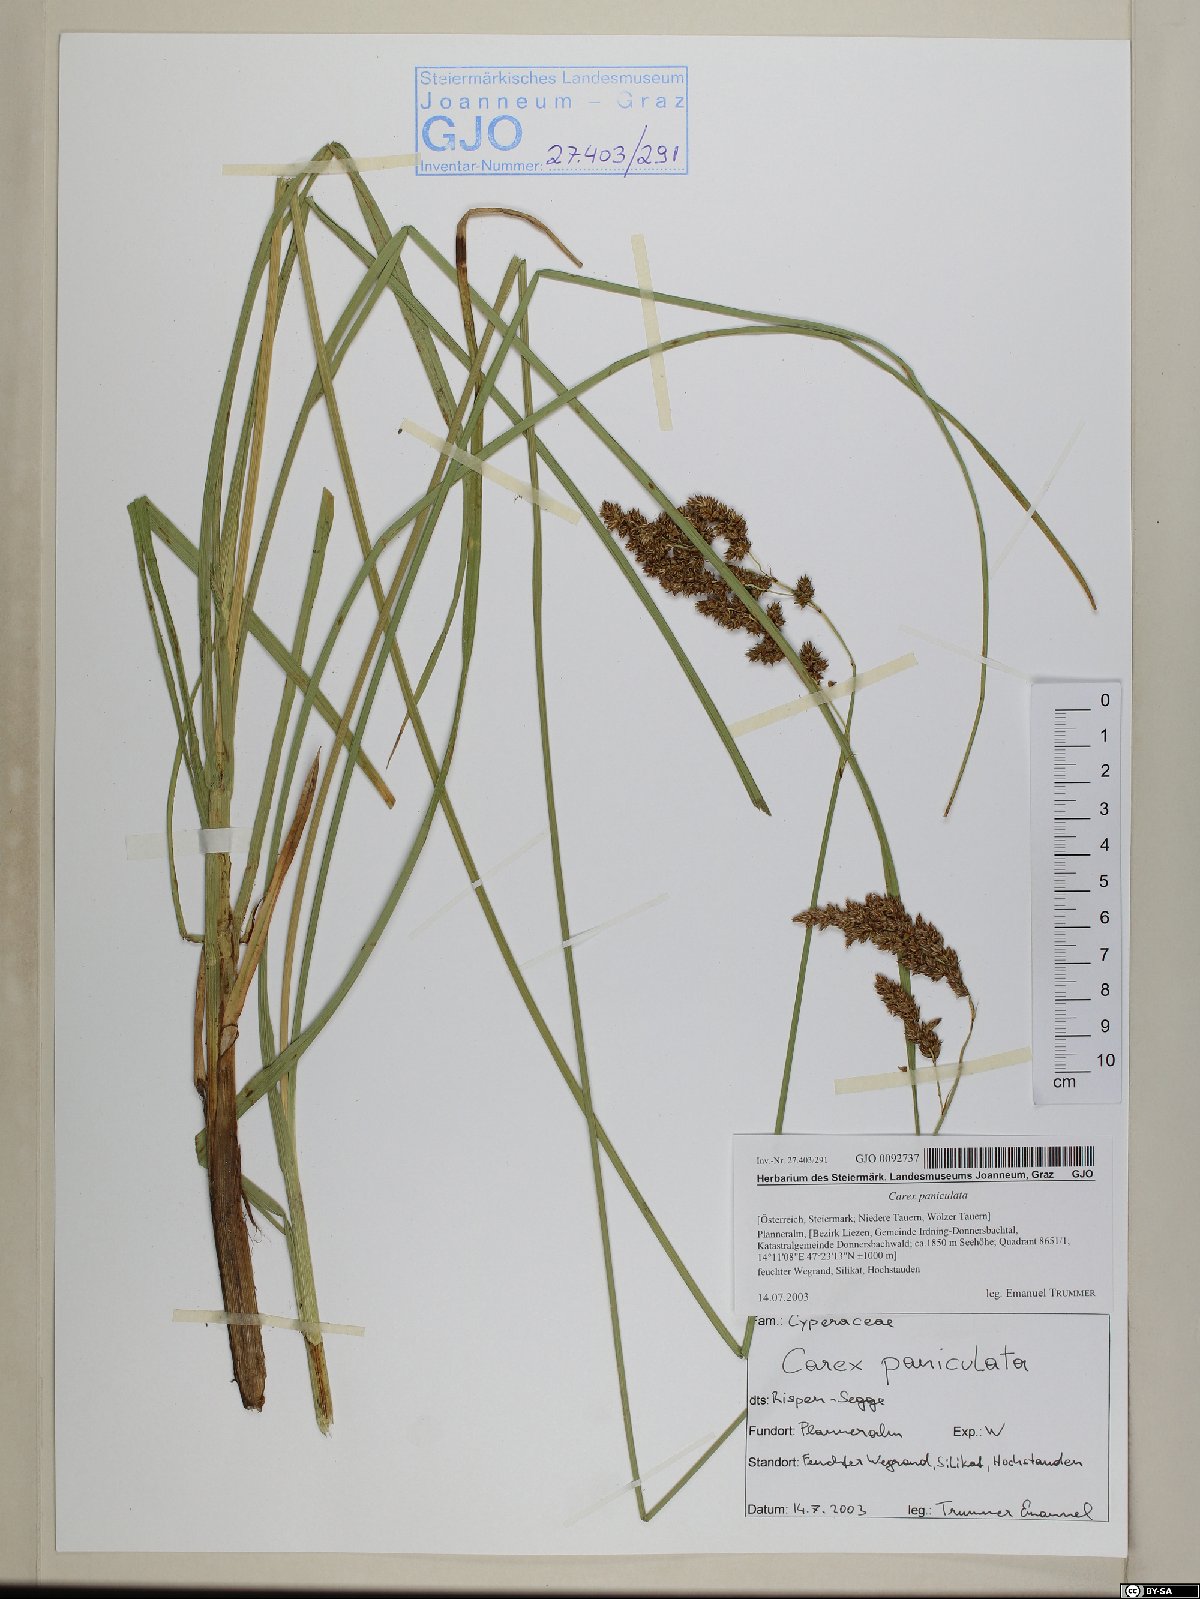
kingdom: Plantae
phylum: Tracheophyta
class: Liliopsida
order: Poales
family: Cyperaceae
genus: Carex
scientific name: Carex paniculata
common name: Greater tussock-sedge
